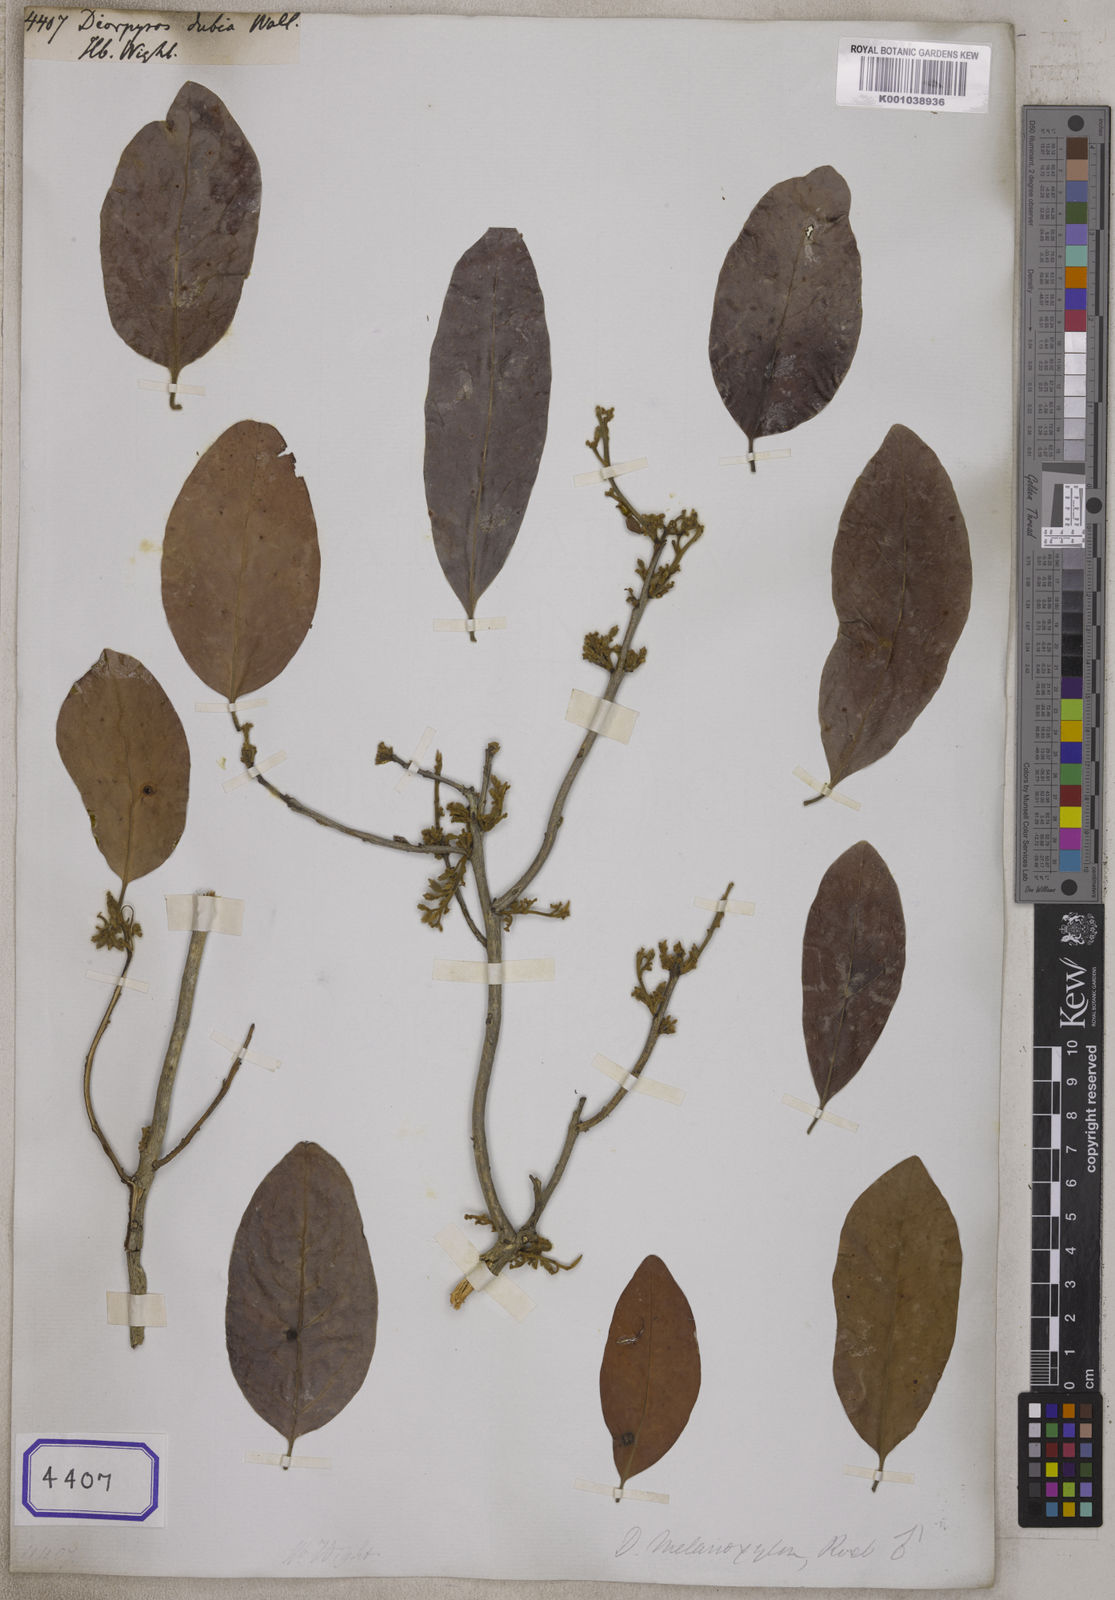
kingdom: Plantae
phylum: Tracheophyta
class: Magnoliopsida
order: Ericales
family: Ebenaceae
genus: Diospyros
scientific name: Diospyros
